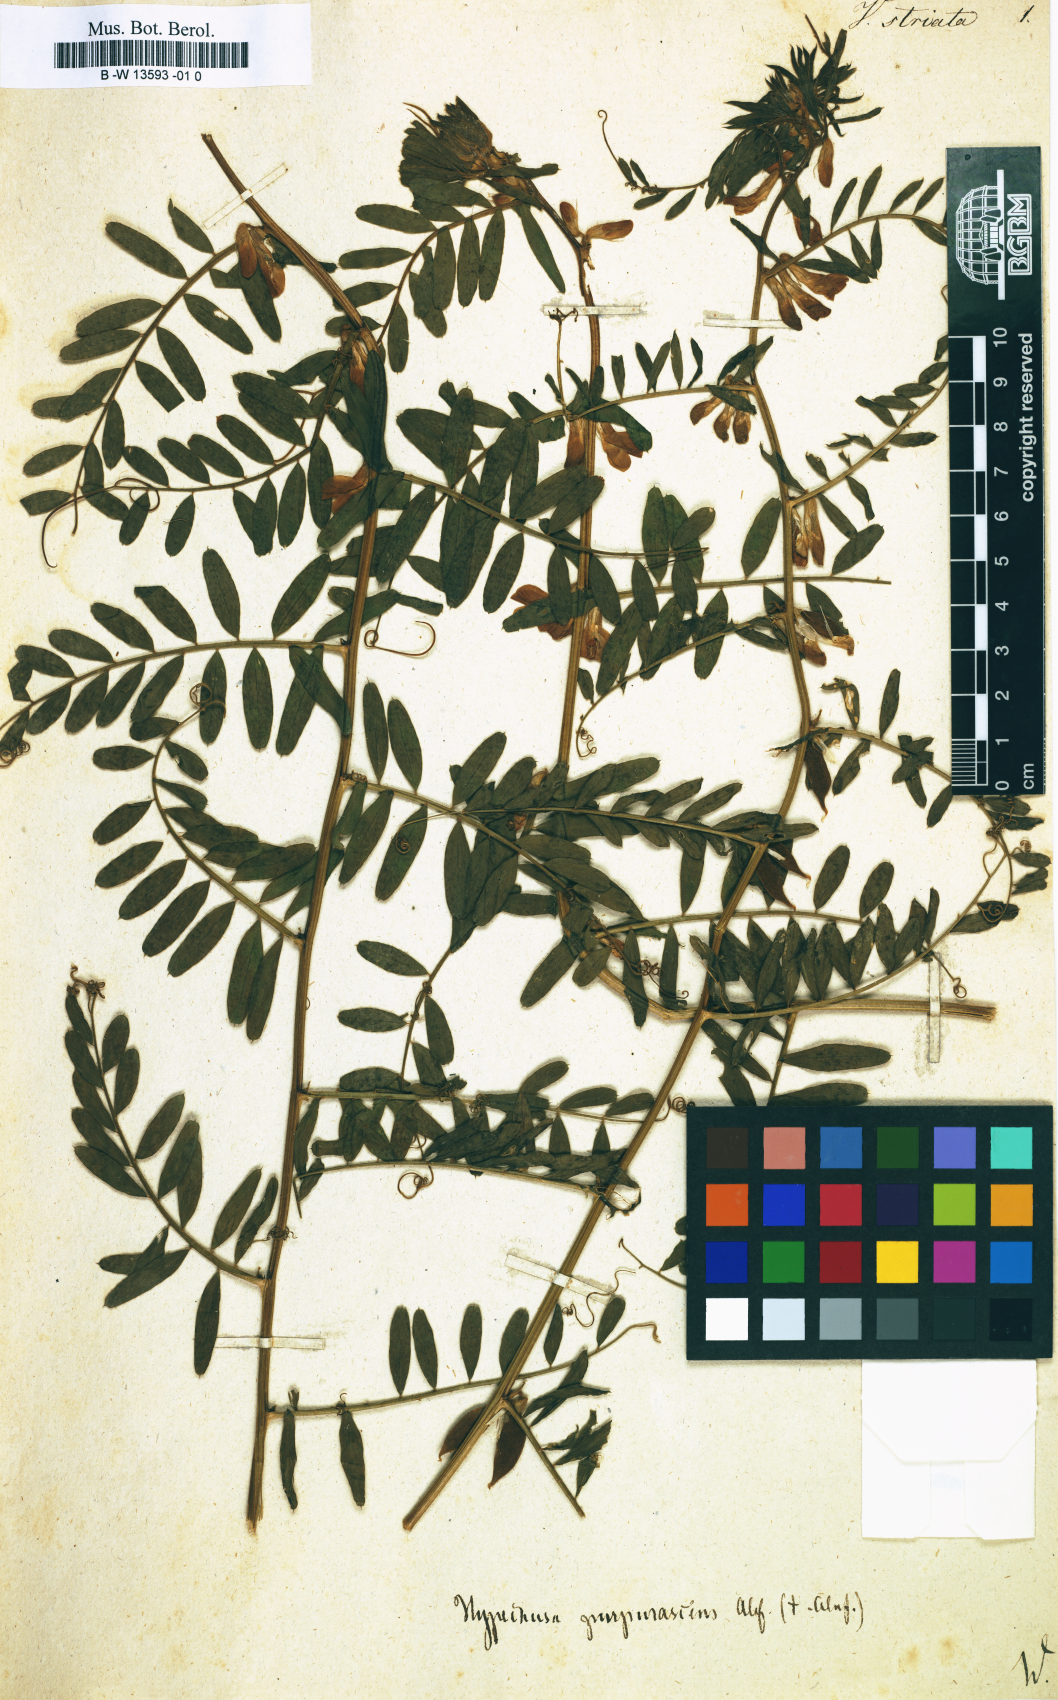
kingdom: Plantae
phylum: Tracheophyta
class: Magnoliopsida
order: Fabales
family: Fabaceae
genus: Vicia
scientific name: Vicia pannonica
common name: Hungarian vetch
